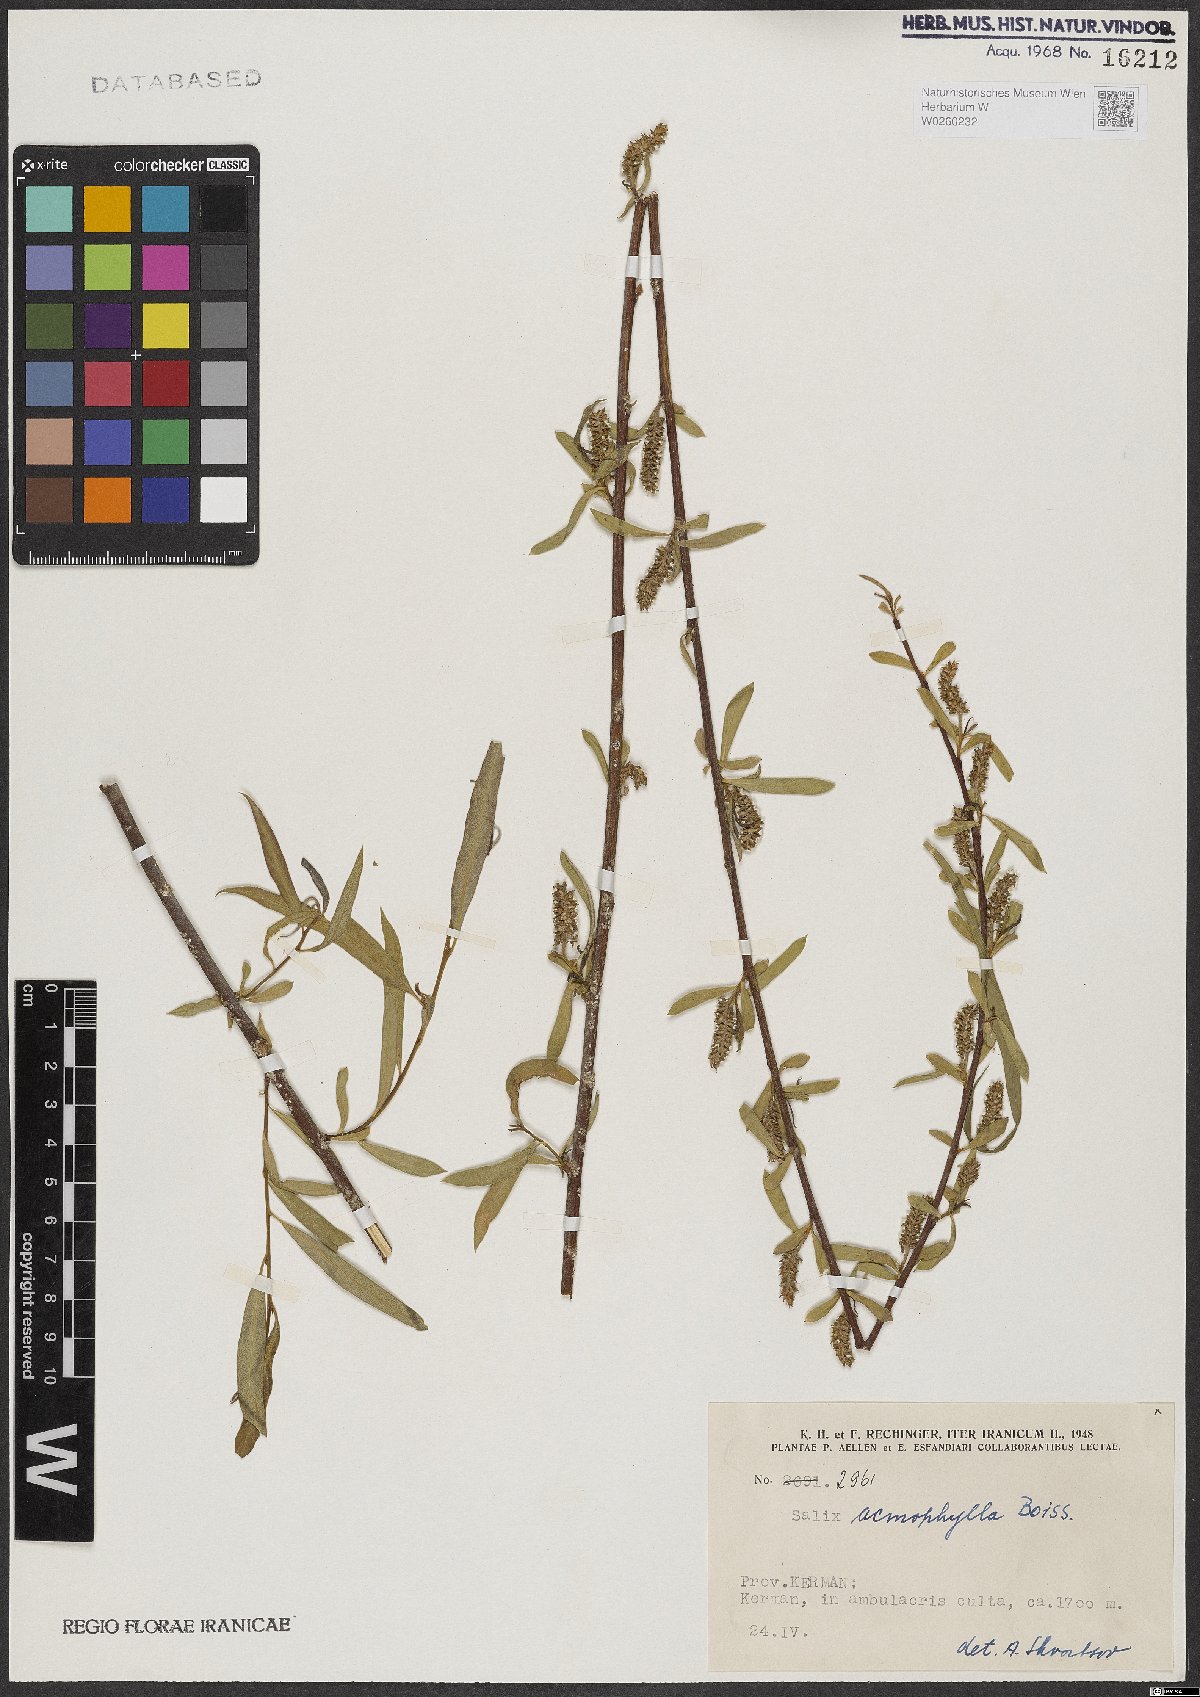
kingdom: Plantae
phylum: Tracheophyta
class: Magnoliopsida
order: Malpighiales
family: Salicaceae
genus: Salix
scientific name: Salix acmophylla
